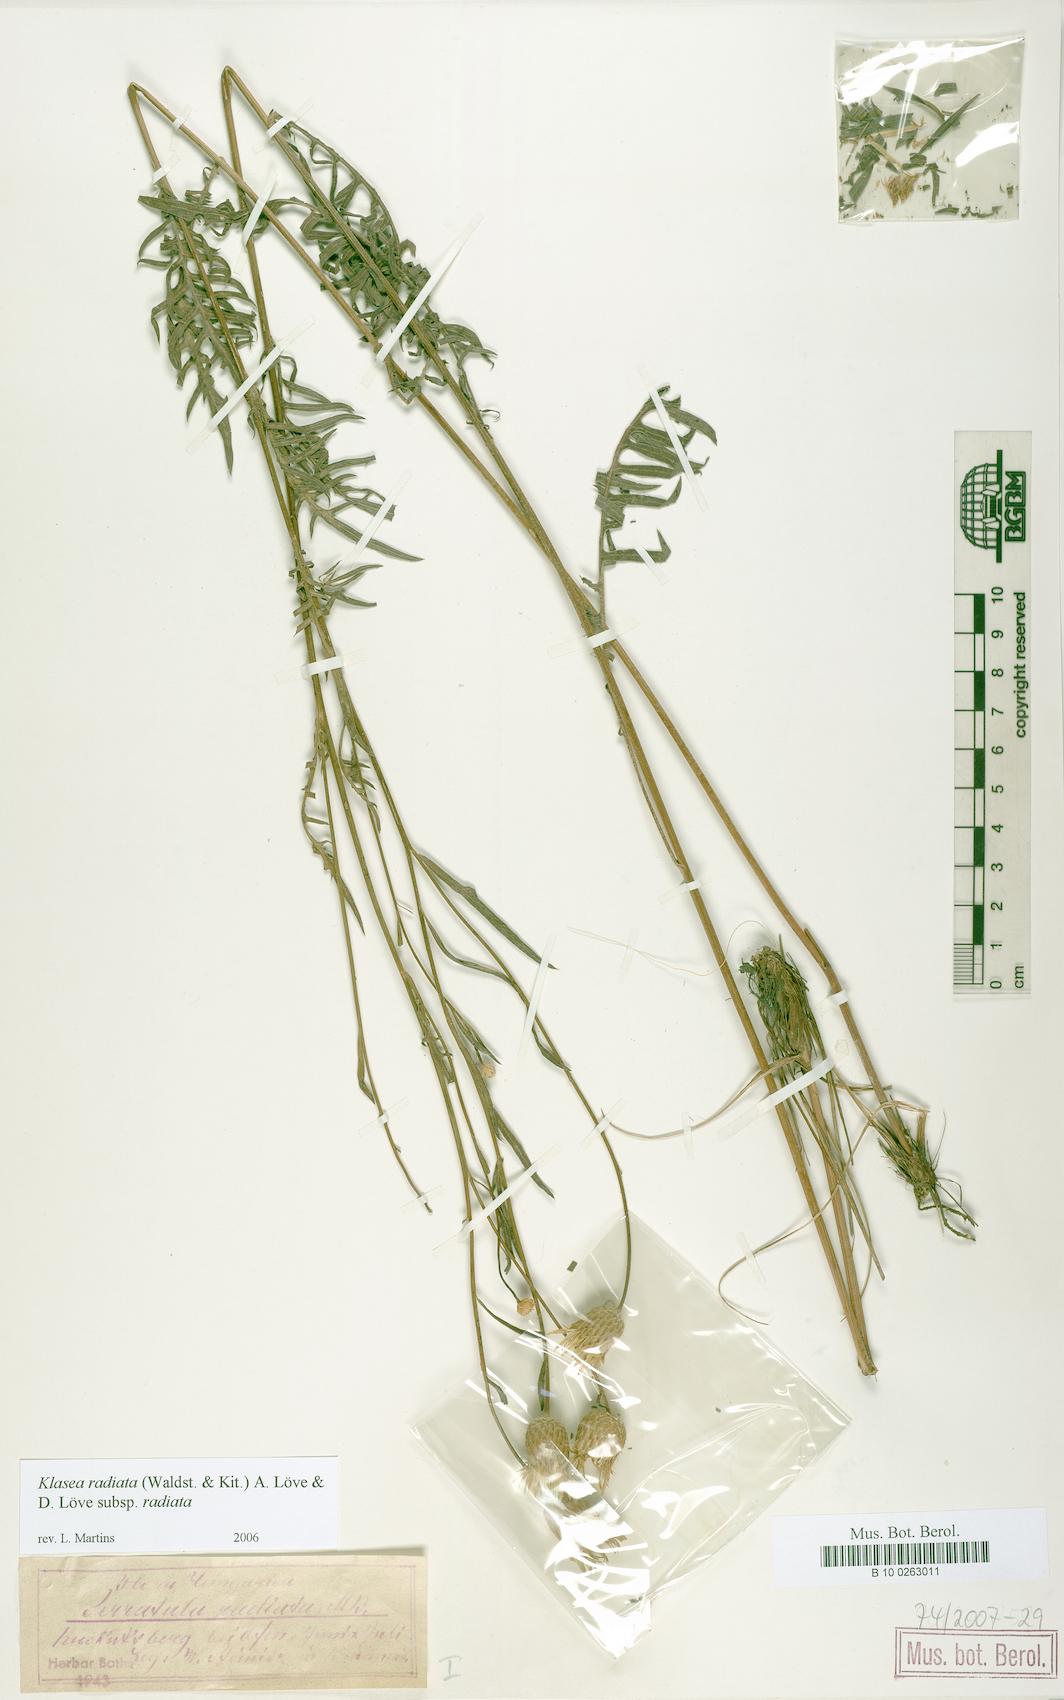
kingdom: Plantae
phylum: Tracheophyta
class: Magnoliopsida
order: Asterales
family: Asteraceae
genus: Klasea
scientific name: Klasea radiata
